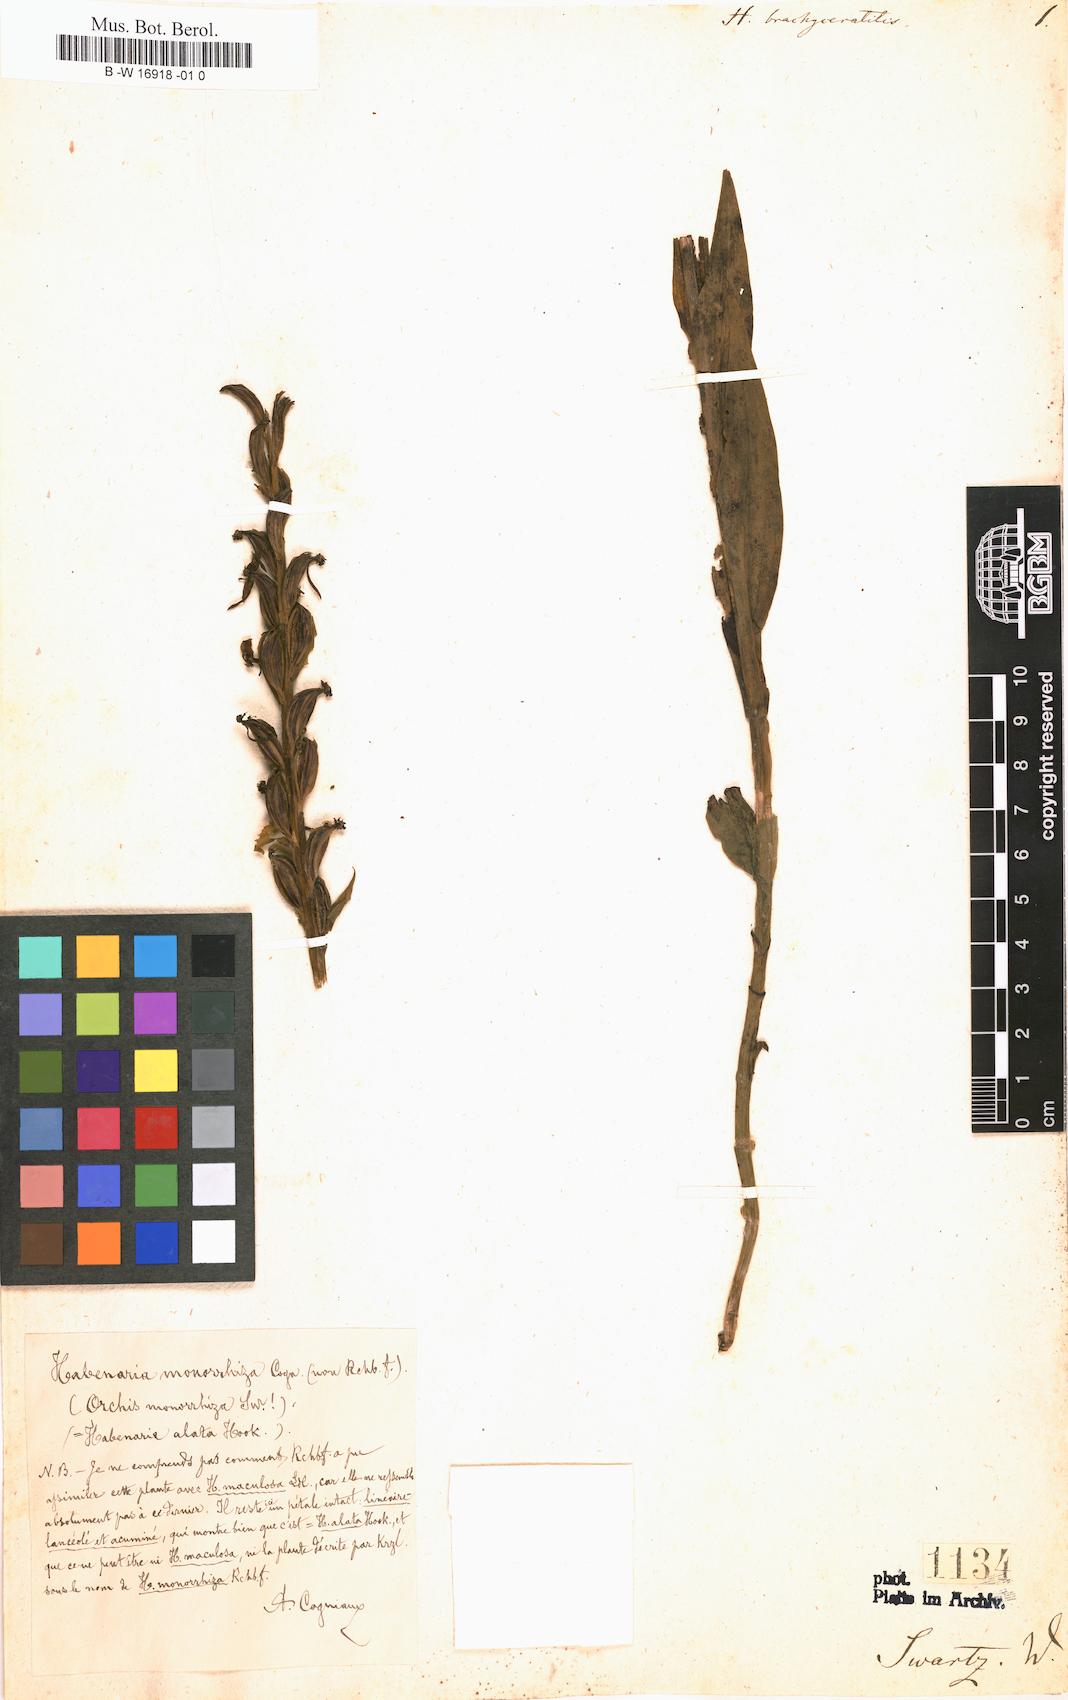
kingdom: Plantae
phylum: Tracheophyta
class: Liliopsida
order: Asparagales
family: Orchidaceae
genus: Habenaria
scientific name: Habenaria monorrhiza
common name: Tropical bog orchid
